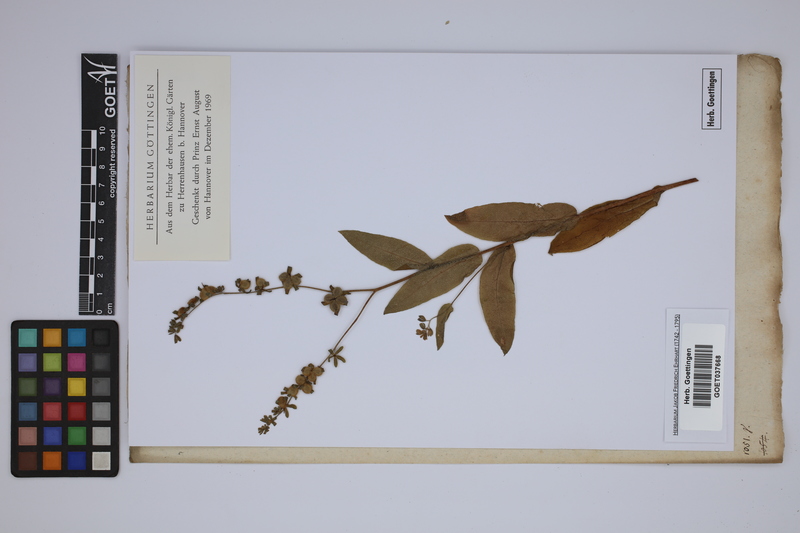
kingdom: Plantae
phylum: Tracheophyta
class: Magnoliopsida
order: Boraginales
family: Boraginaceae
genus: Cynoglossum
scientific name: Cynoglossum officinale
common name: Hound's-tongue
